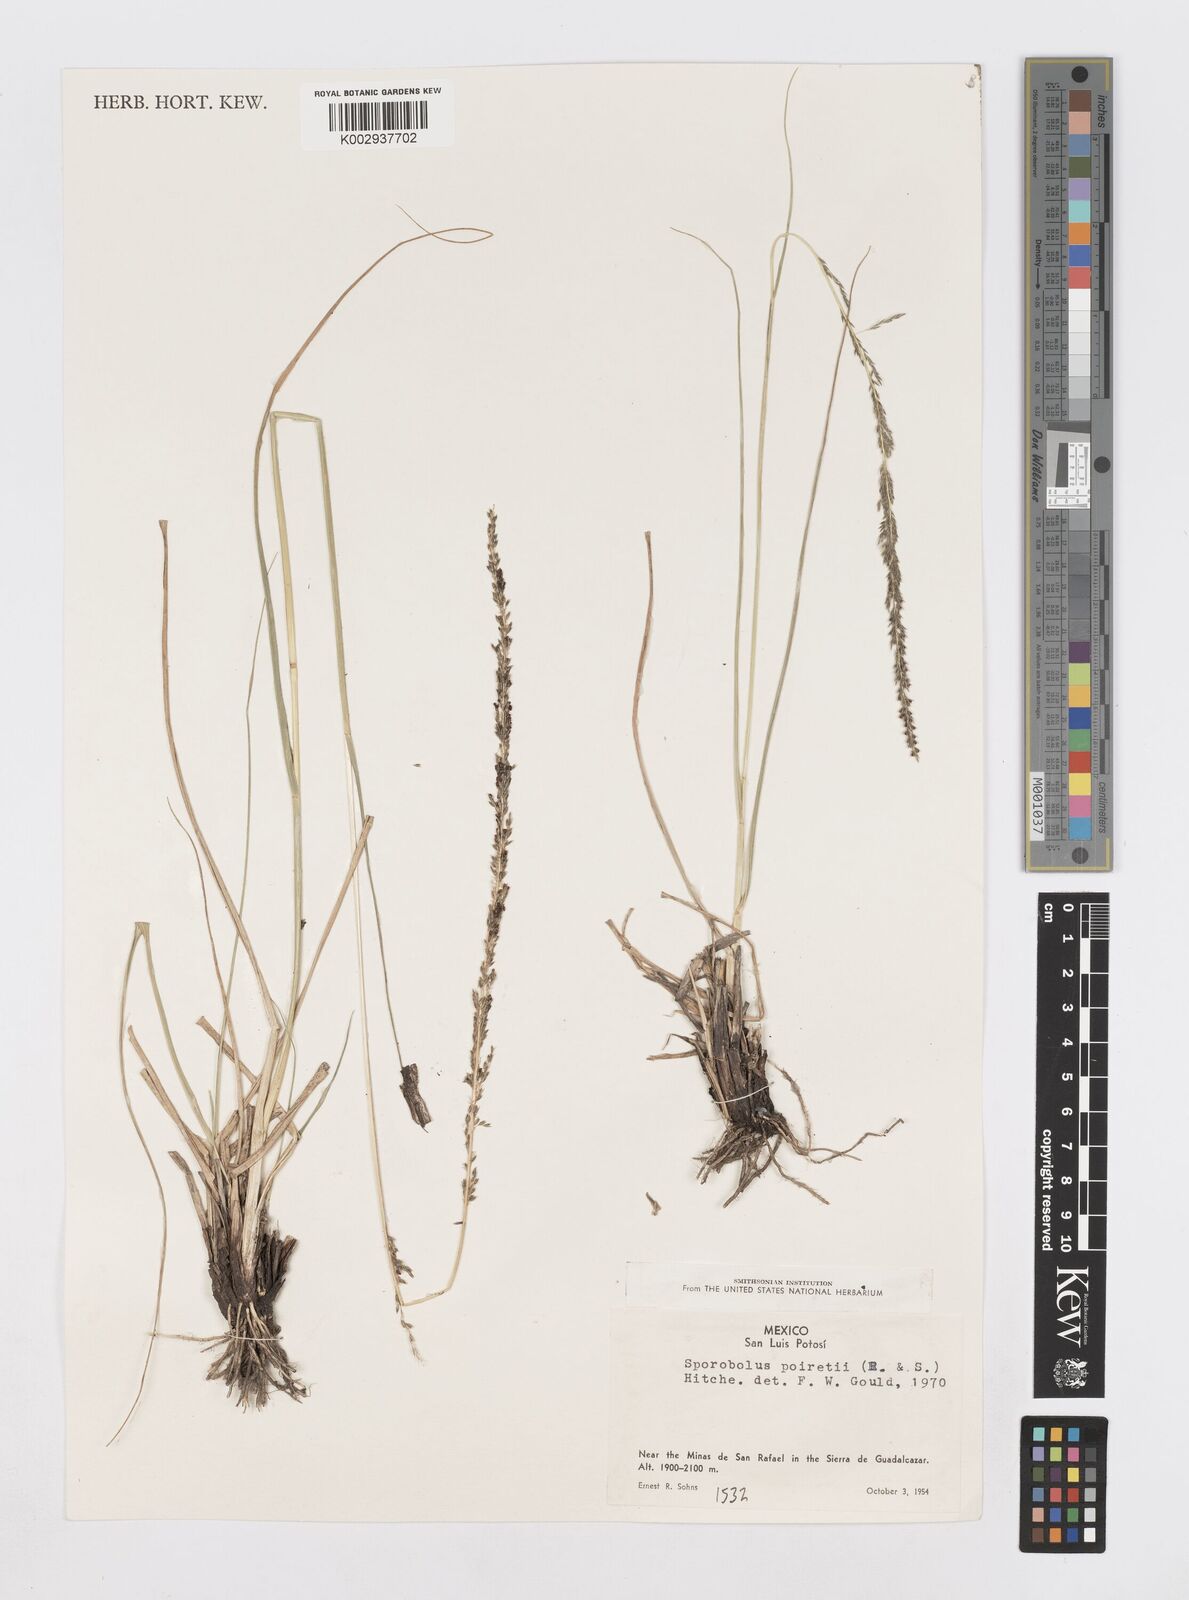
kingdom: Plantae
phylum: Tracheophyta
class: Liliopsida
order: Poales
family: Poaceae
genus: Sporobolus
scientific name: Sporobolus junceus
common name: Lizard grass
